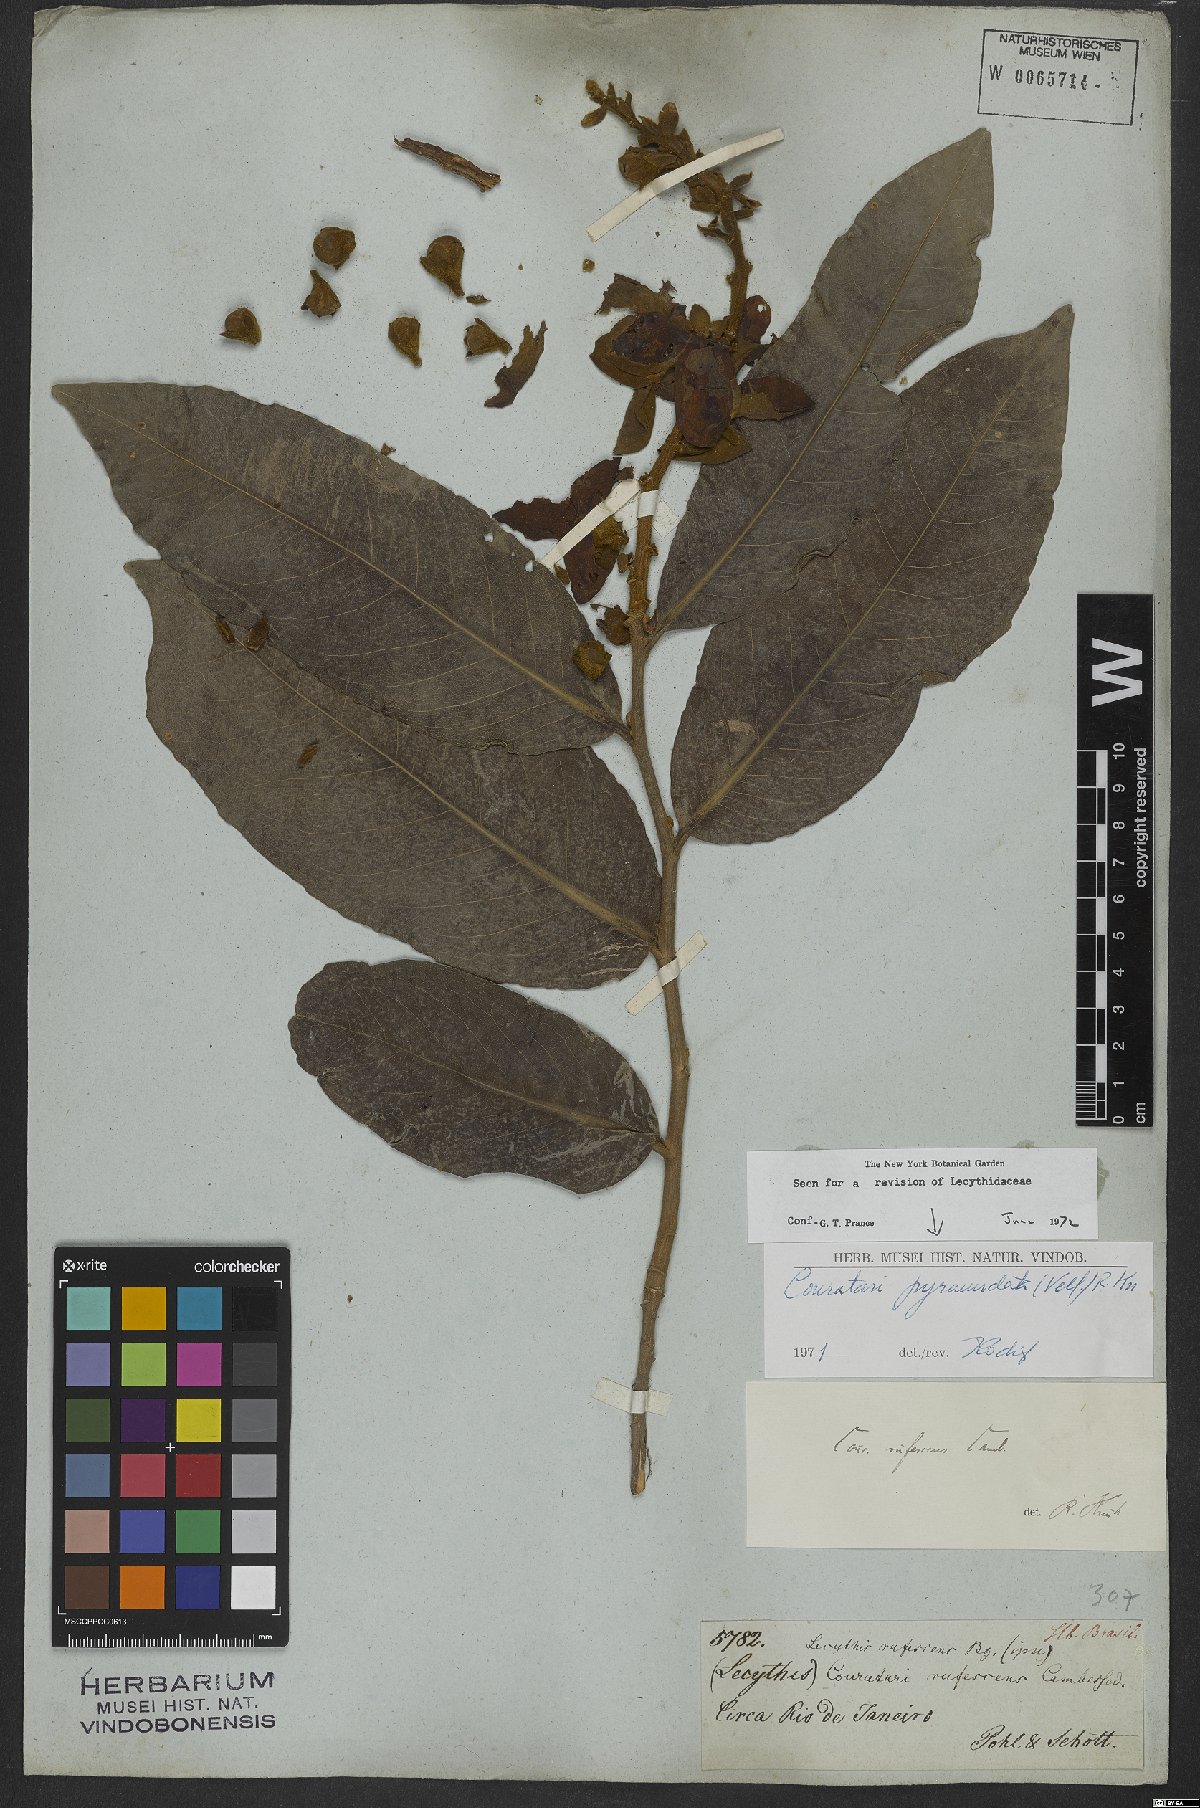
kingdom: Plantae
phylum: Tracheophyta
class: Magnoliopsida
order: Ericales
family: Lecythidaceae
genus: Couratari
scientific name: Couratari pyramidata
